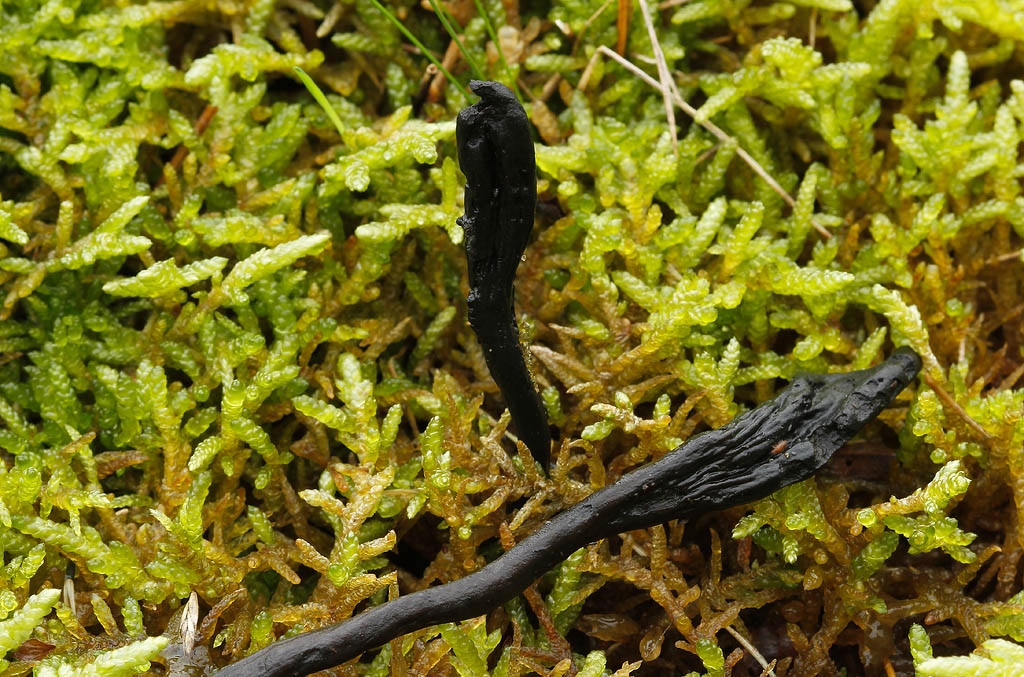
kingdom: Fungi
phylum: Ascomycota
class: Geoglossomycetes
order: Geoglossales
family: Geoglossaceae
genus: Glutinoglossum
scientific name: Glutinoglossum glutinosum
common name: slimet jordtunge
